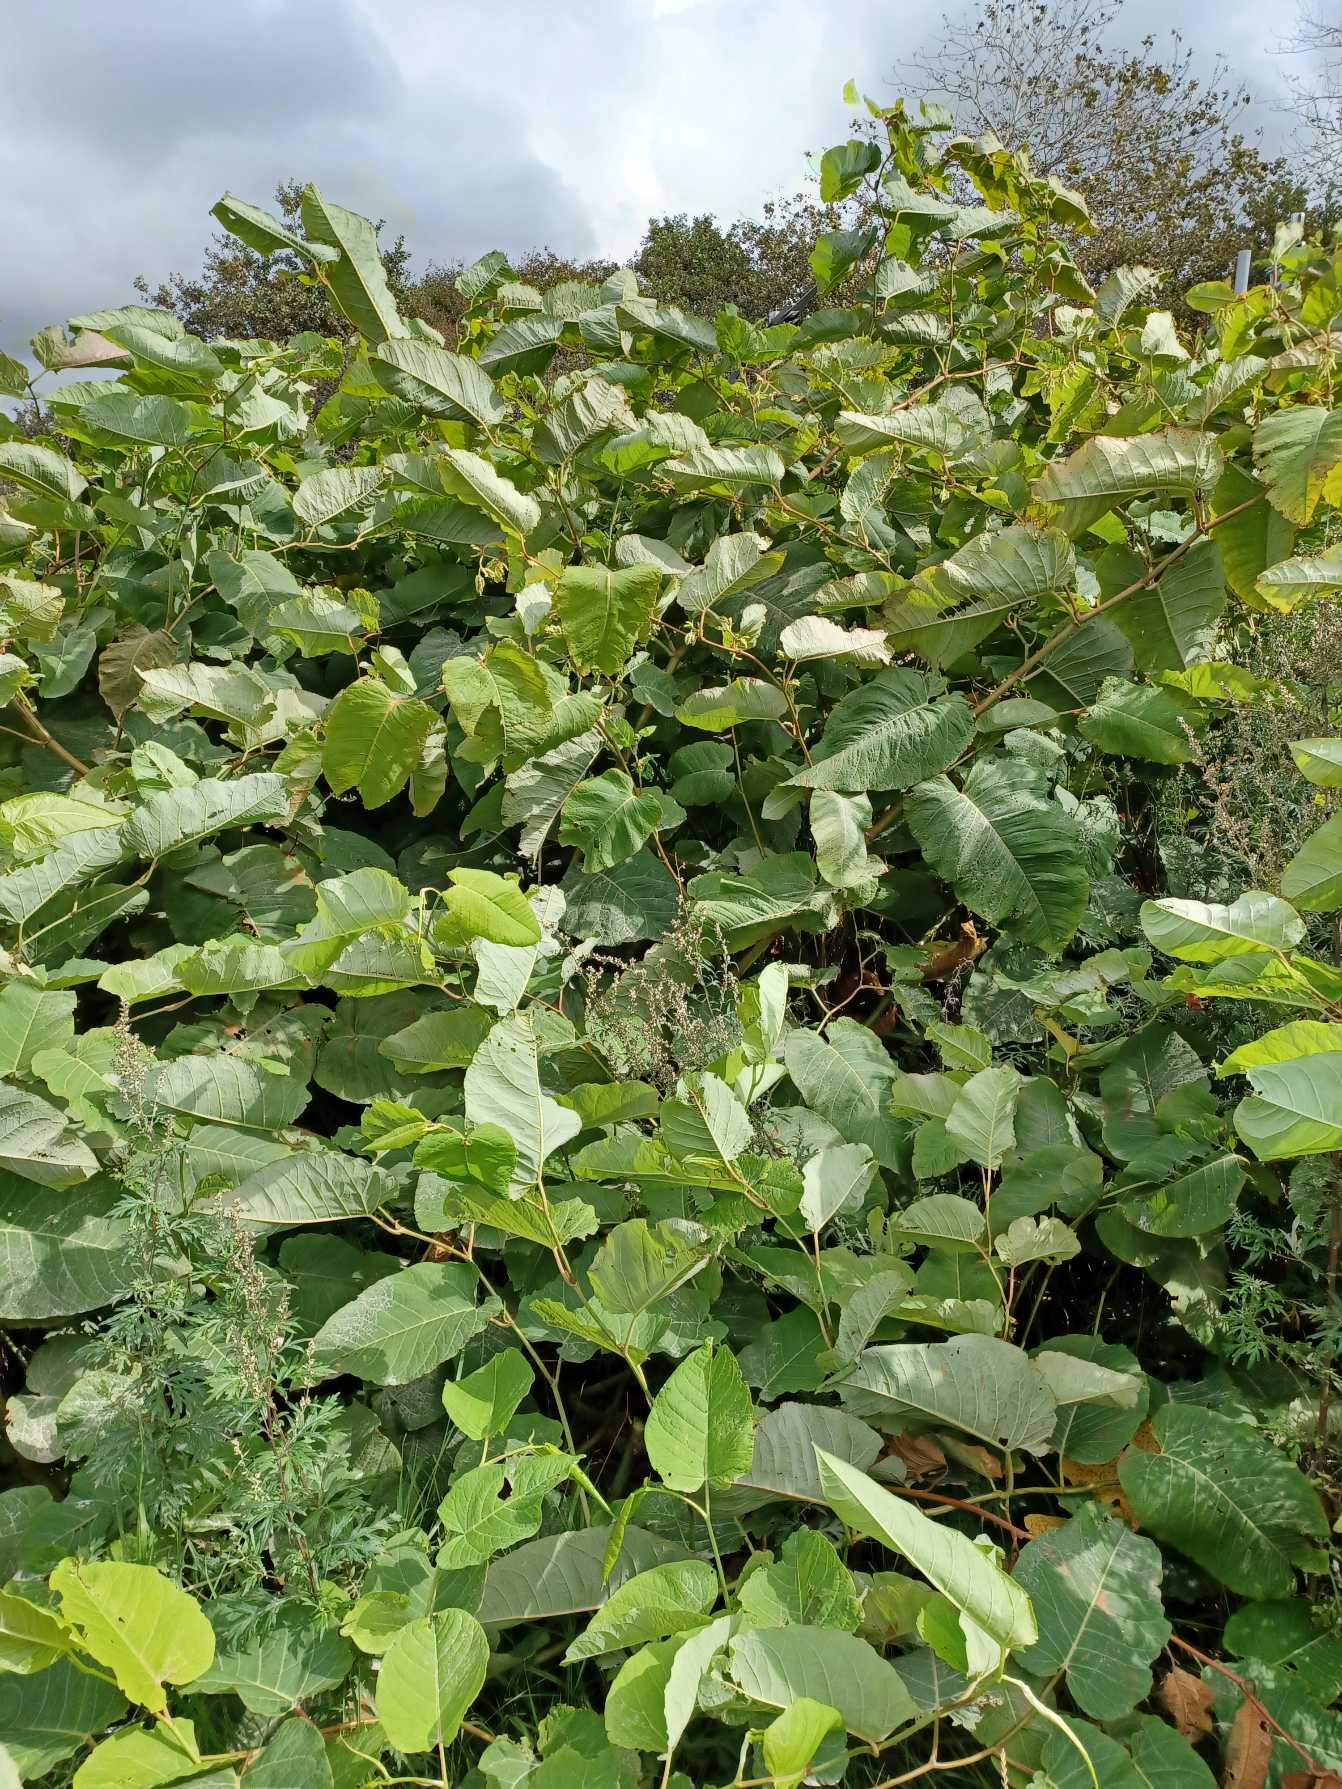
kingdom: Plantae
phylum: Tracheophyta
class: Magnoliopsida
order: Caryophyllales
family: Polygonaceae
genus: Reynoutria
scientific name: Reynoutria sachalinensis
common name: Kæmpe-pileurt
